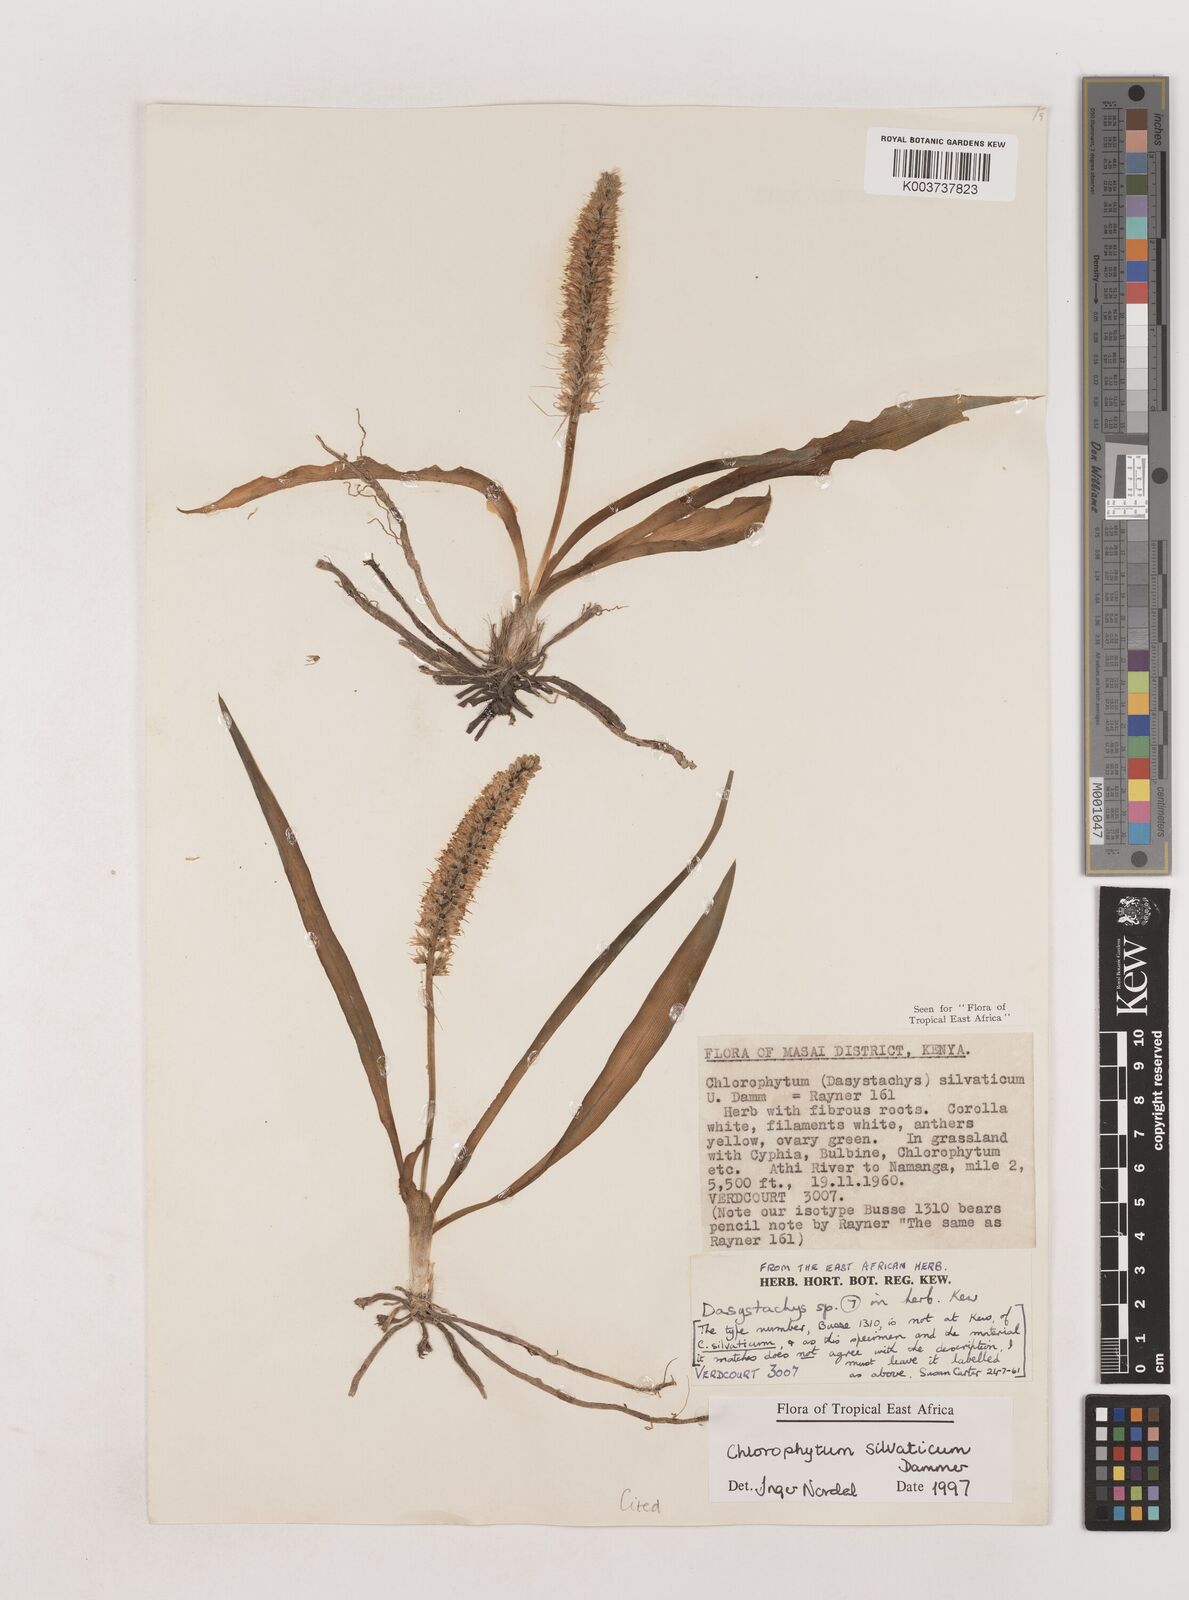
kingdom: Plantae
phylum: Tracheophyta
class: Liliopsida
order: Asparagales
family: Asparagaceae
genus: Chlorophytum
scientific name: Chlorophytum
